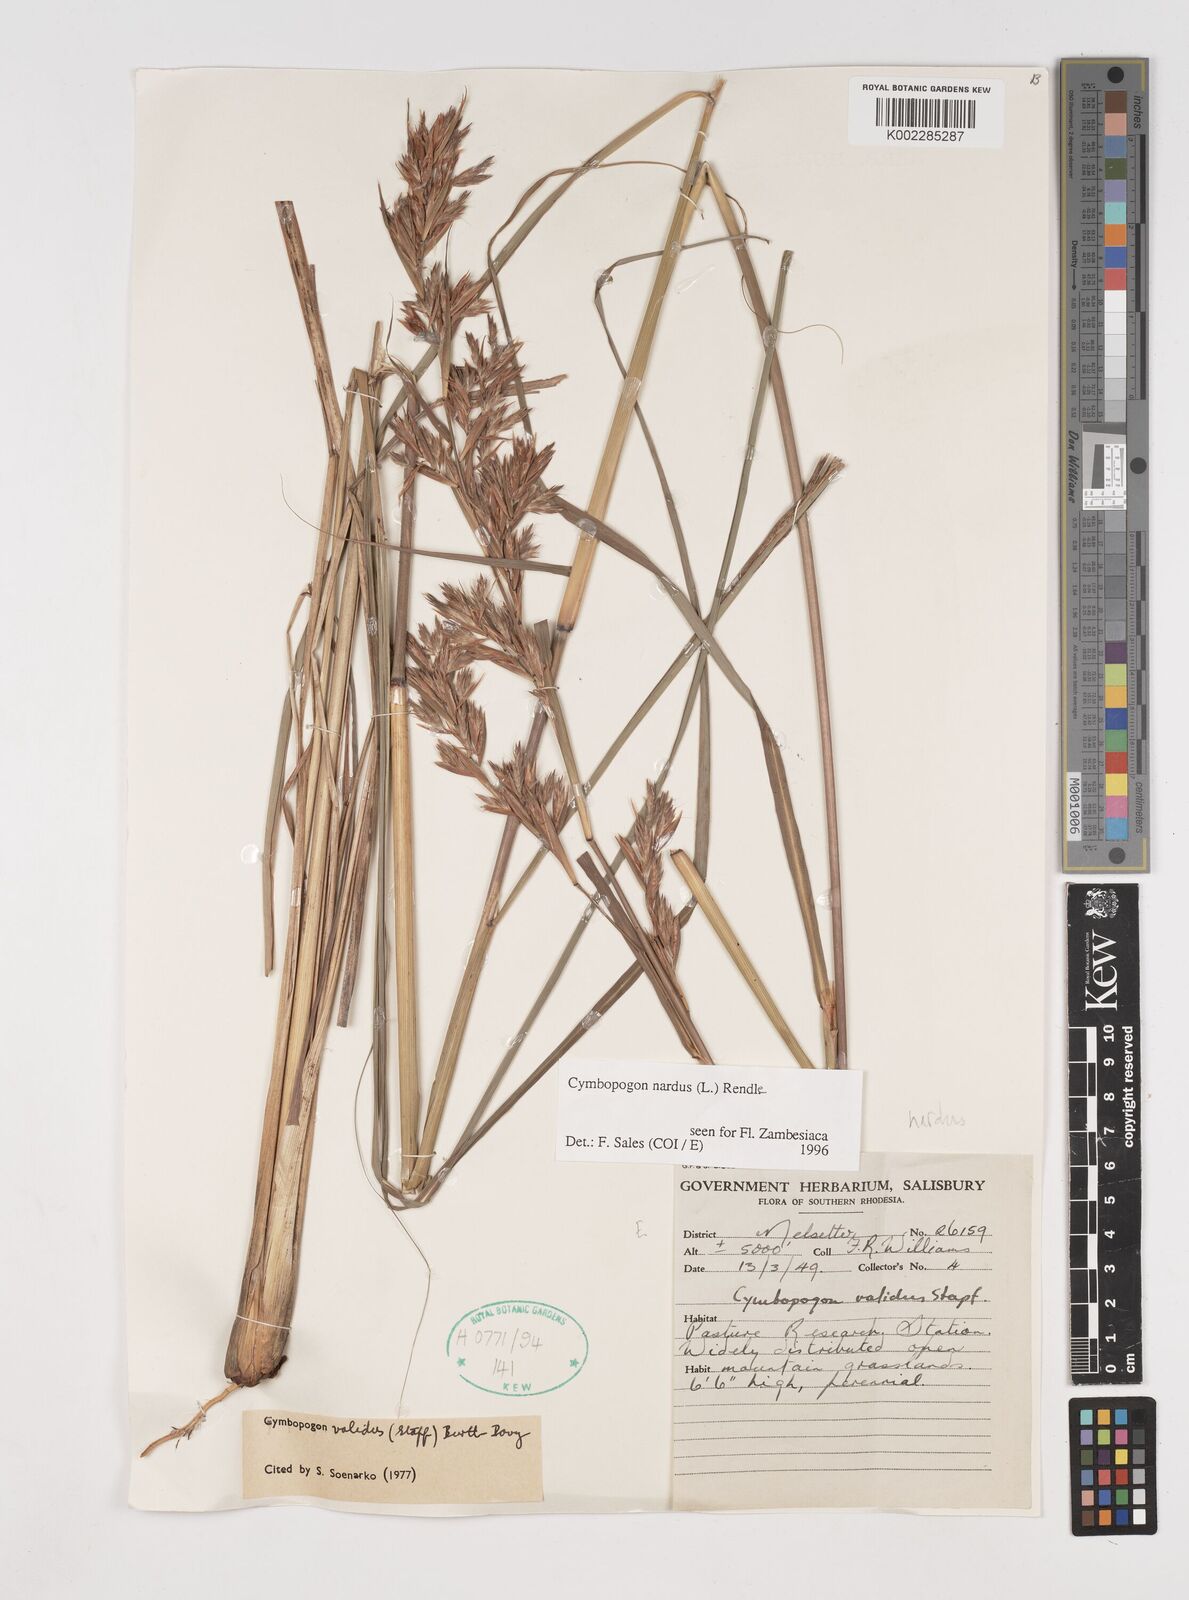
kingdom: Plantae
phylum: Tracheophyta
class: Liliopsida
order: Poales
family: Poaceae
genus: Cymbopogon
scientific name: Cymbopogon nardus
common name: Giant turpentine grass
